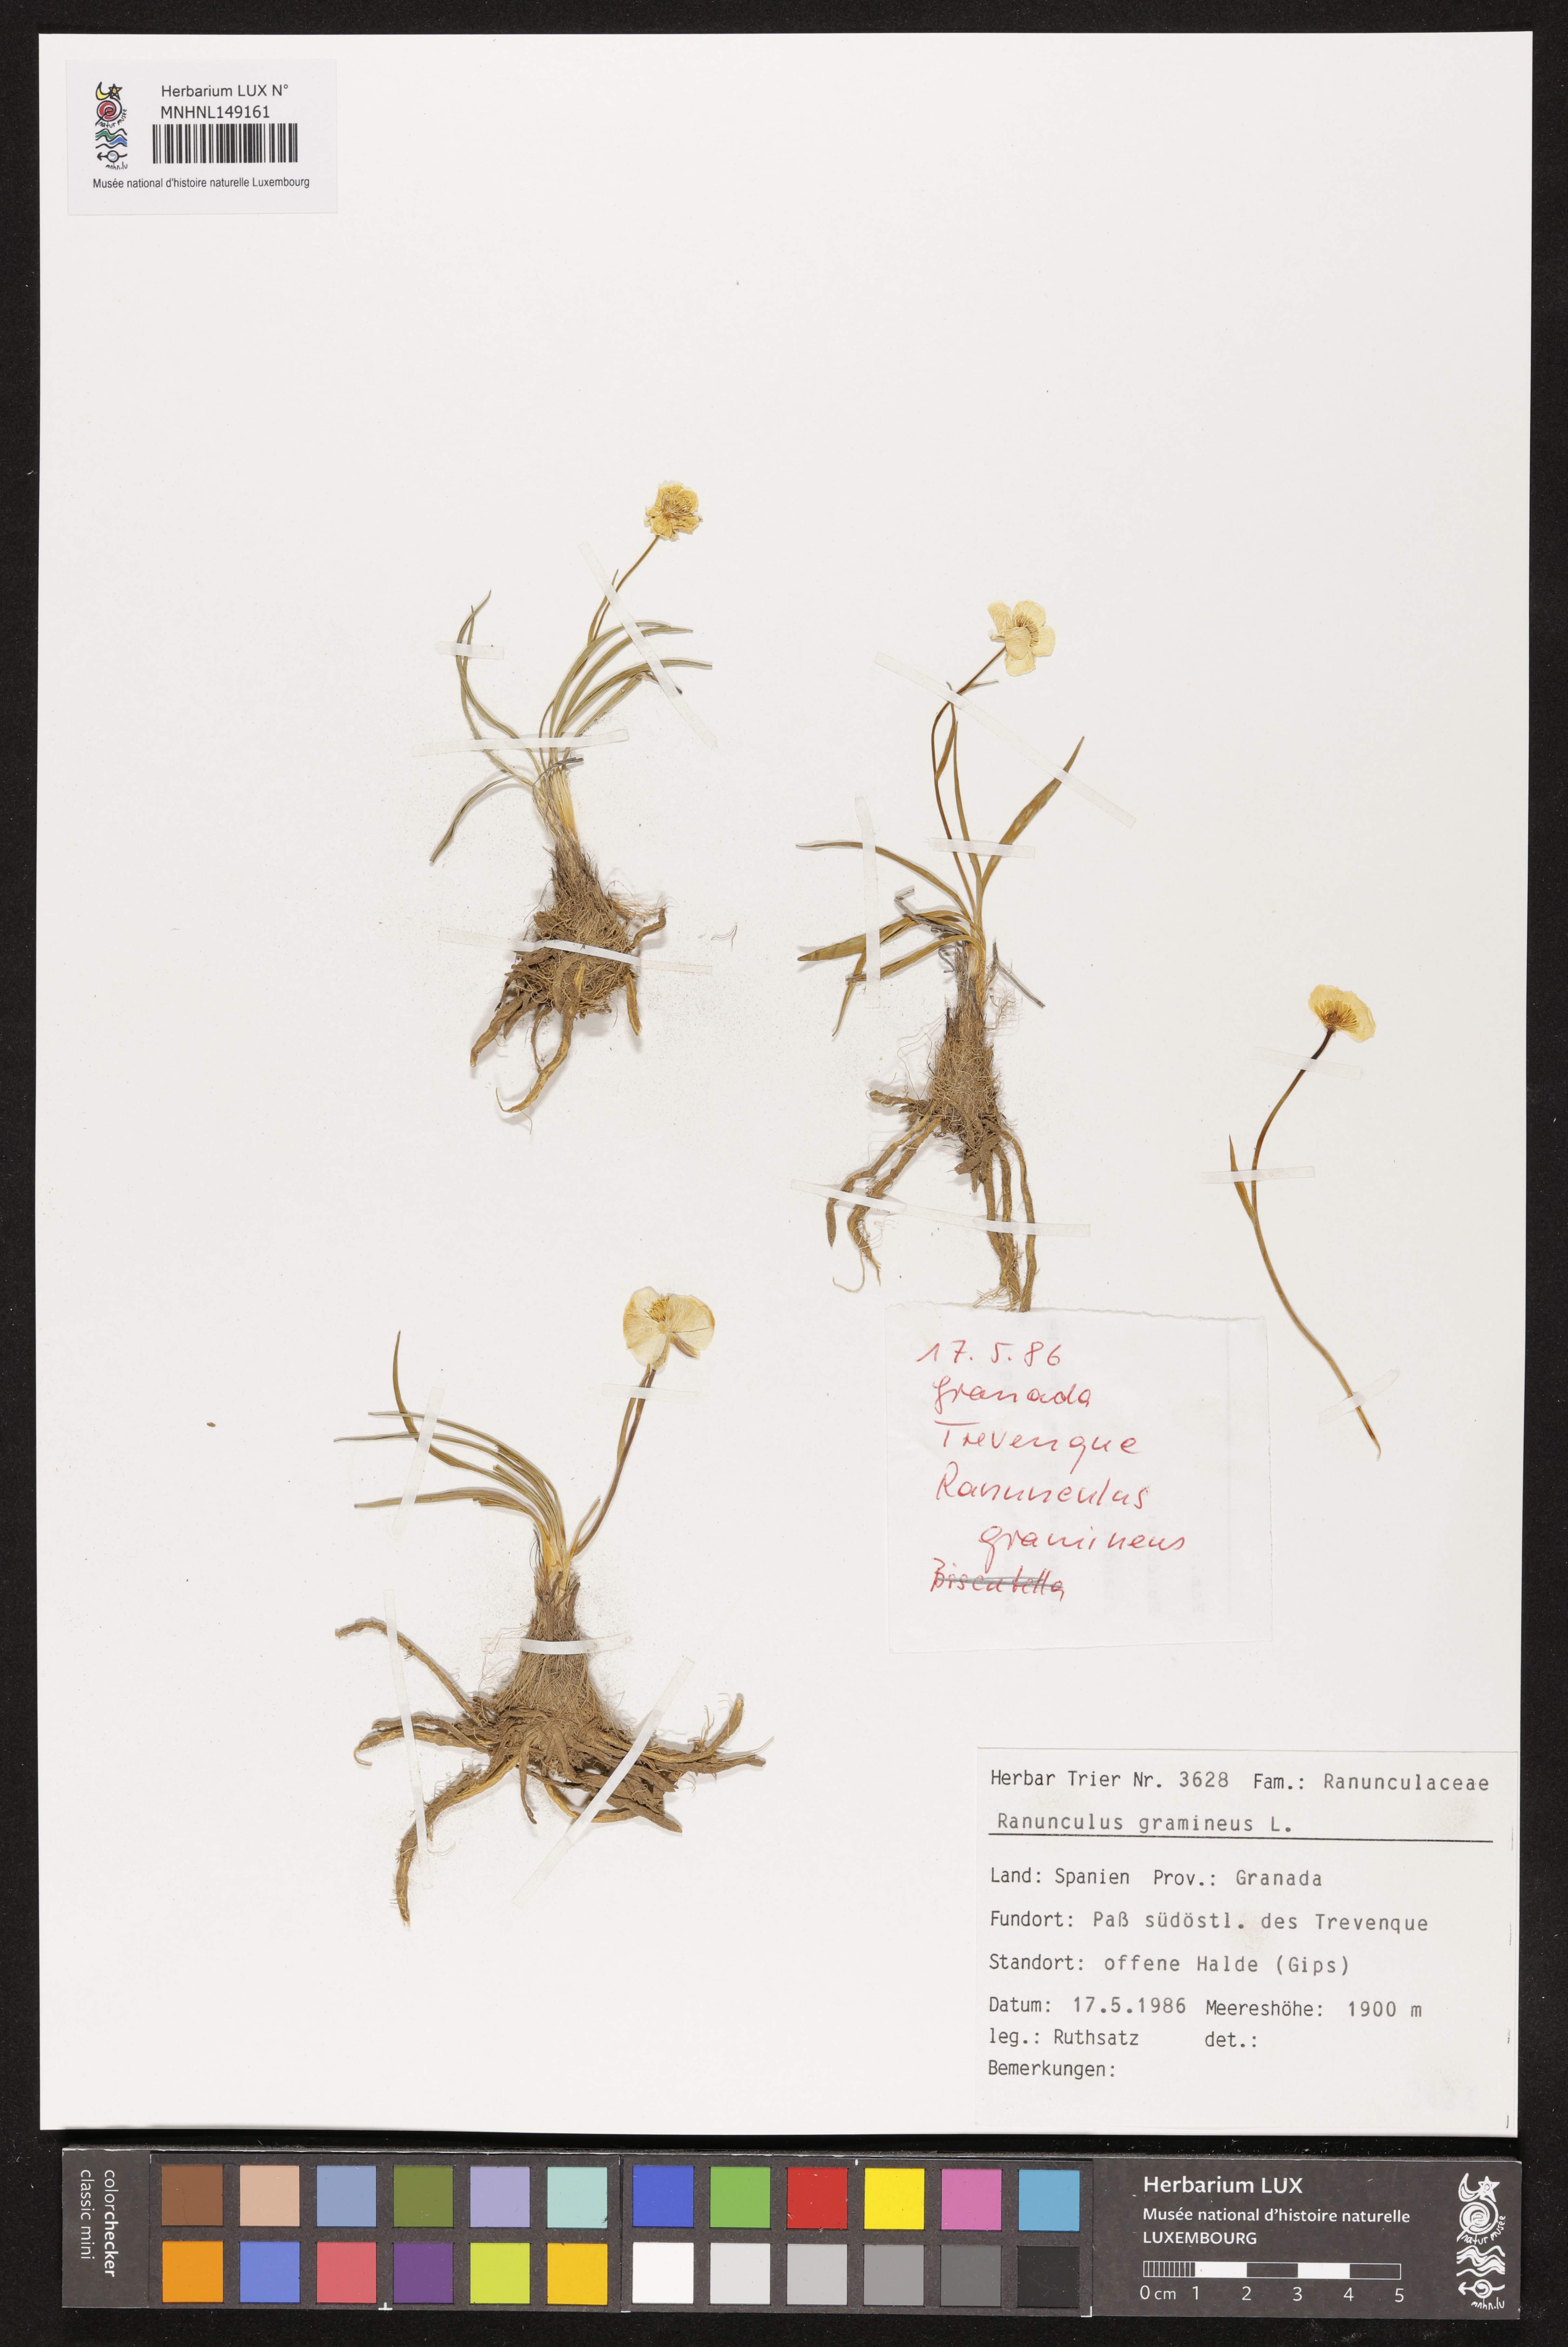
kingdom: Plantae
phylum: Tracheophyta
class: Magnoliopsida
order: Ranunculales
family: Ranunculaceae
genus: Ranunculus
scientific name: Ranunculus gramineus
